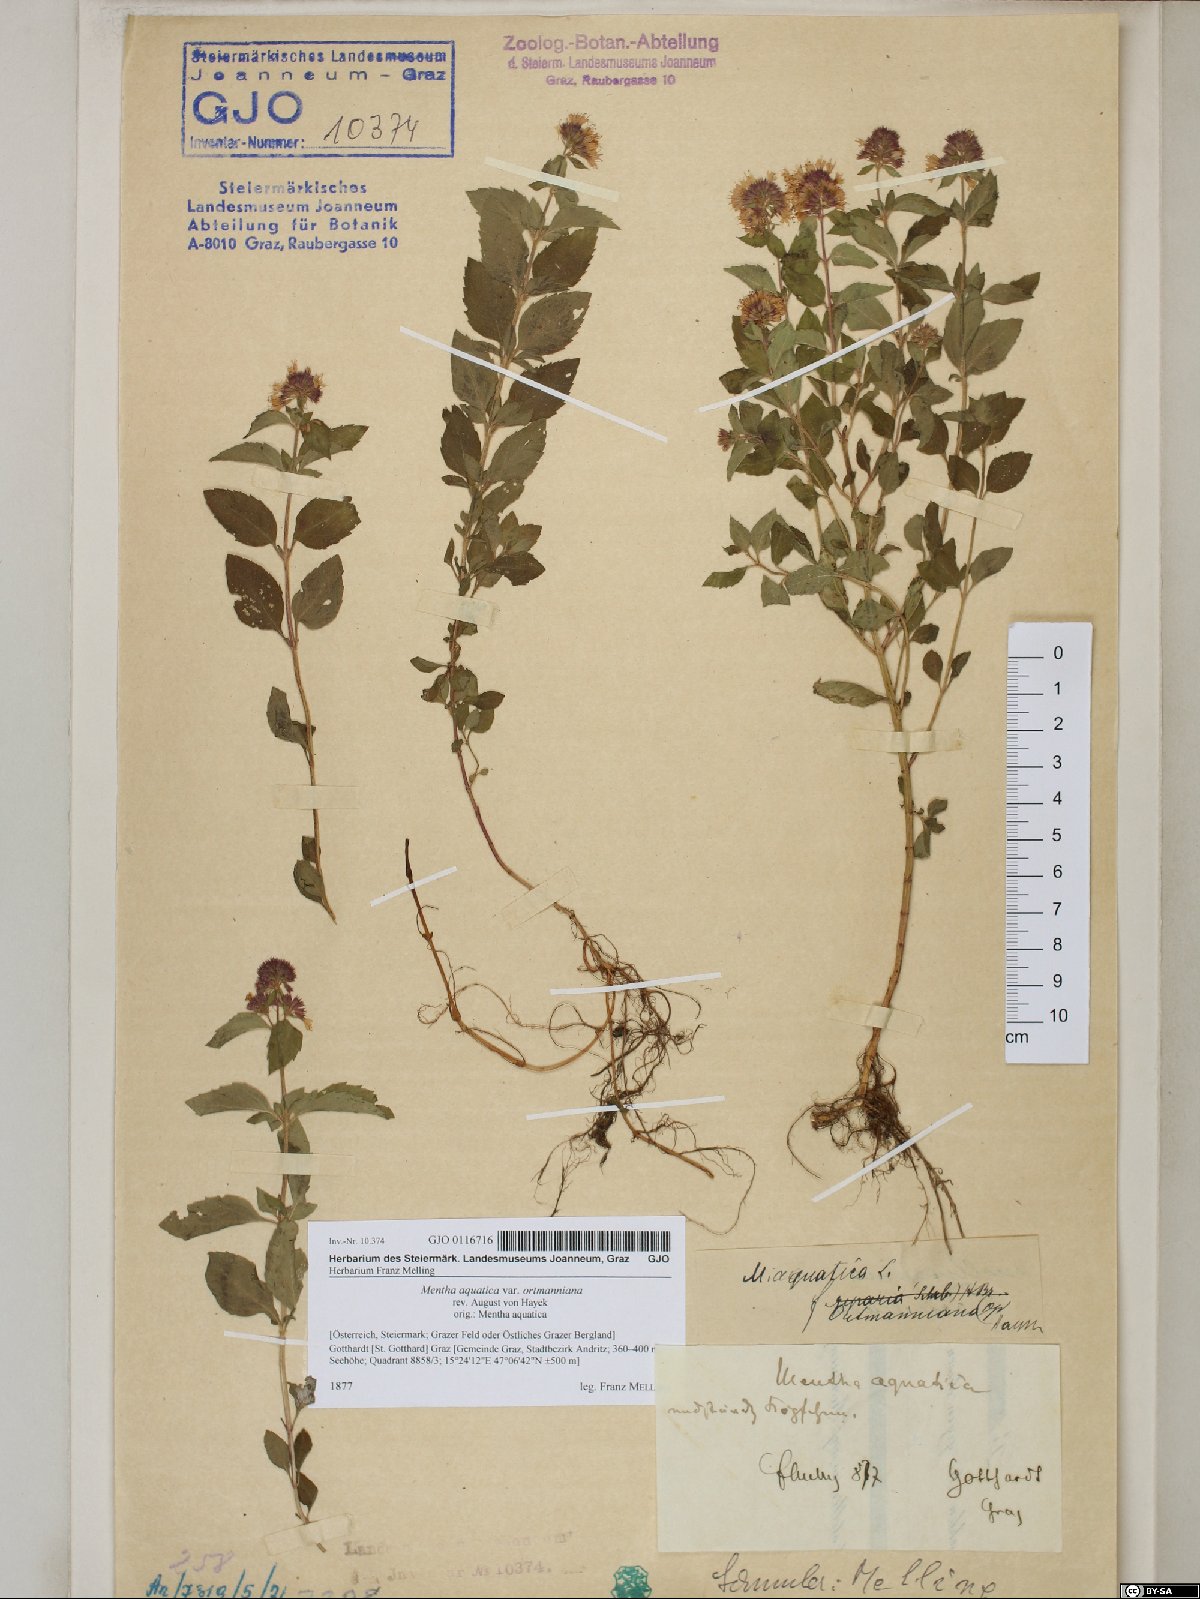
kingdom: Plantae
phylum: Tracheophyta
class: Magnoliopsida
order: Lamiales
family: Lamiaceae
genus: Mentha
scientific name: Mentha aquatica
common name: Water mint
